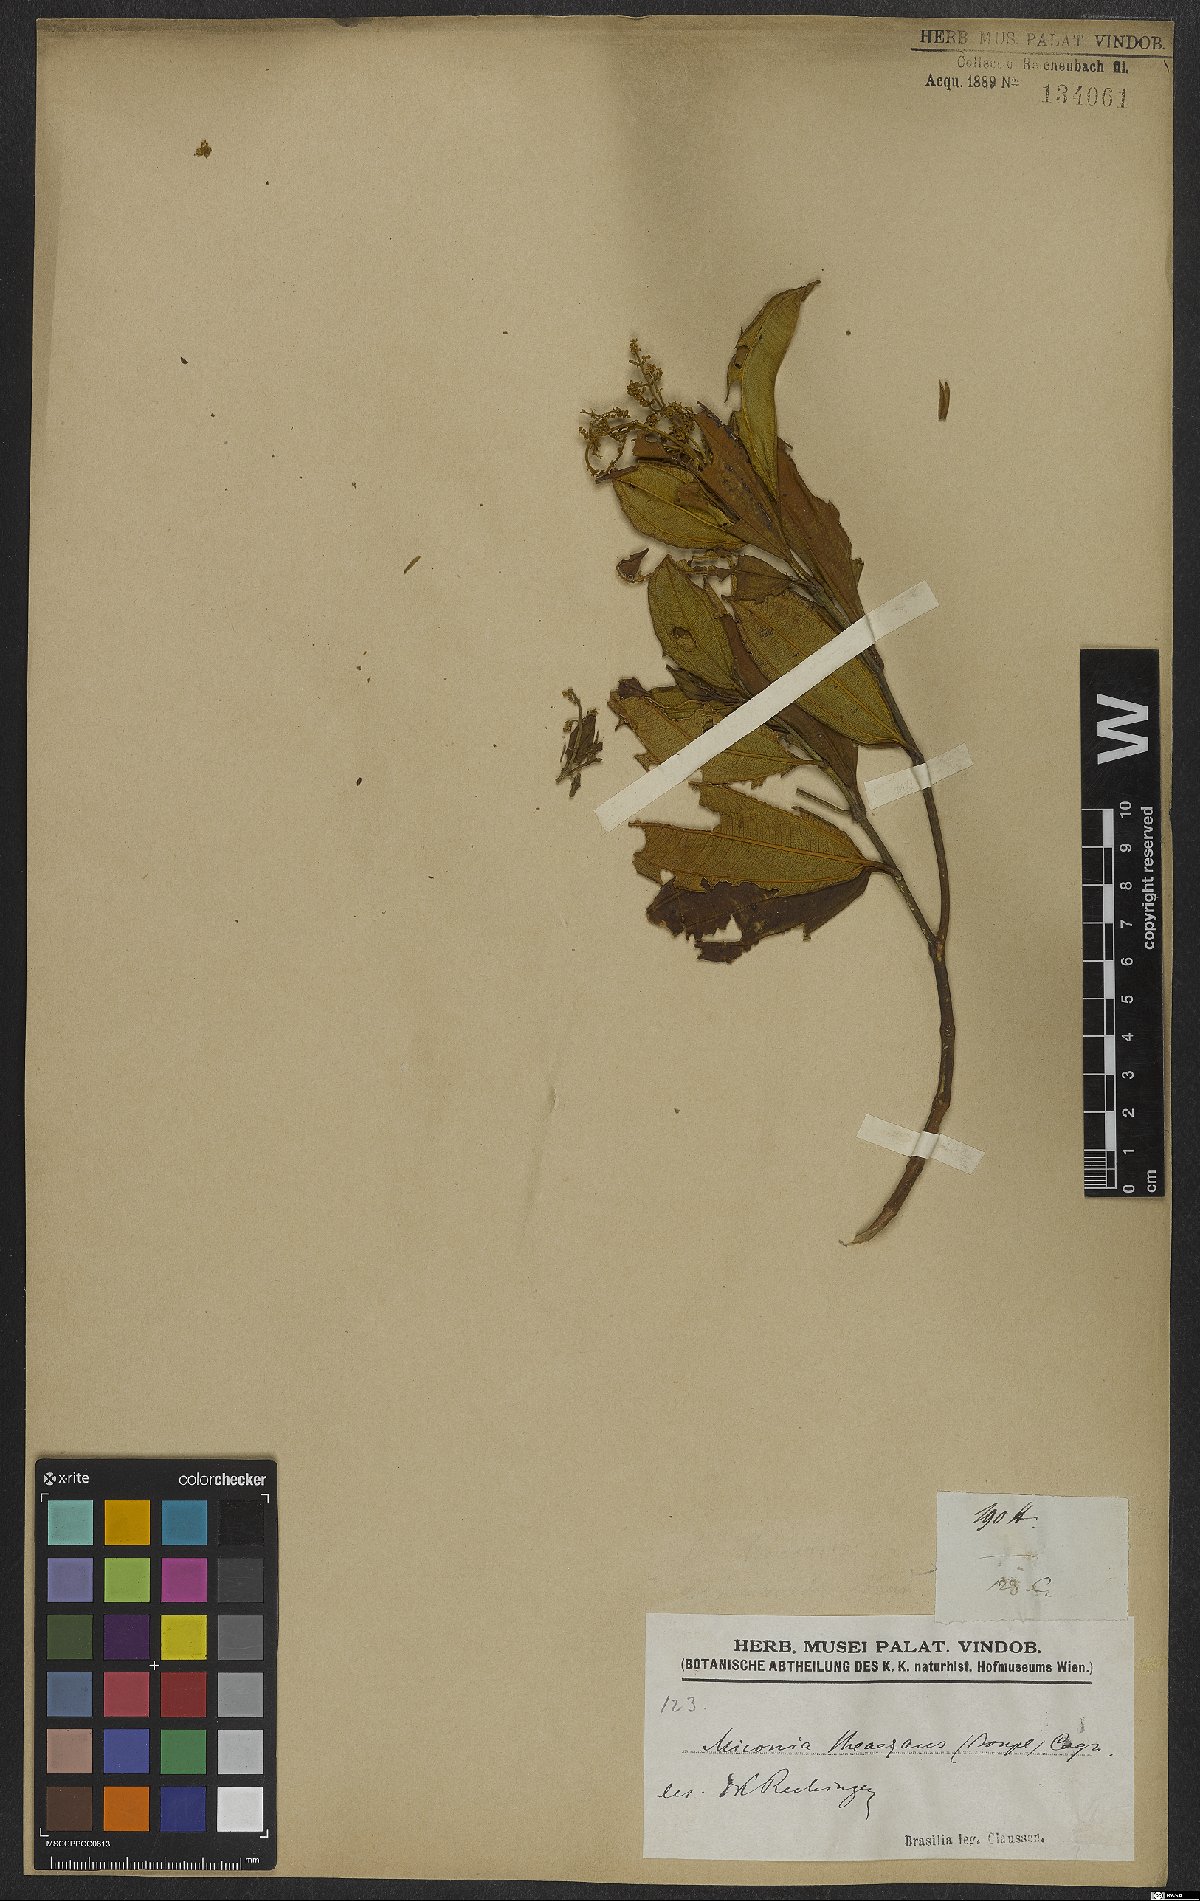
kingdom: Plantae
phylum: Tracheophyta
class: Magnoliopsida
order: Myrtales
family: Melastomataceae
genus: Miconia
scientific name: Miconia theizans
